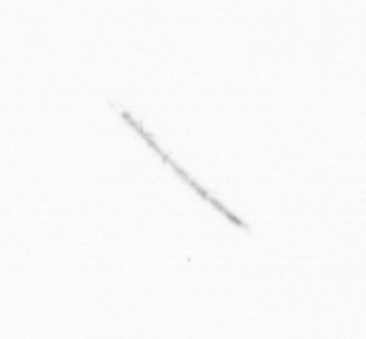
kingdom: Chromista
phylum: Ochrophyta
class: Bacillariophyceae
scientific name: Bacillariophyceae
